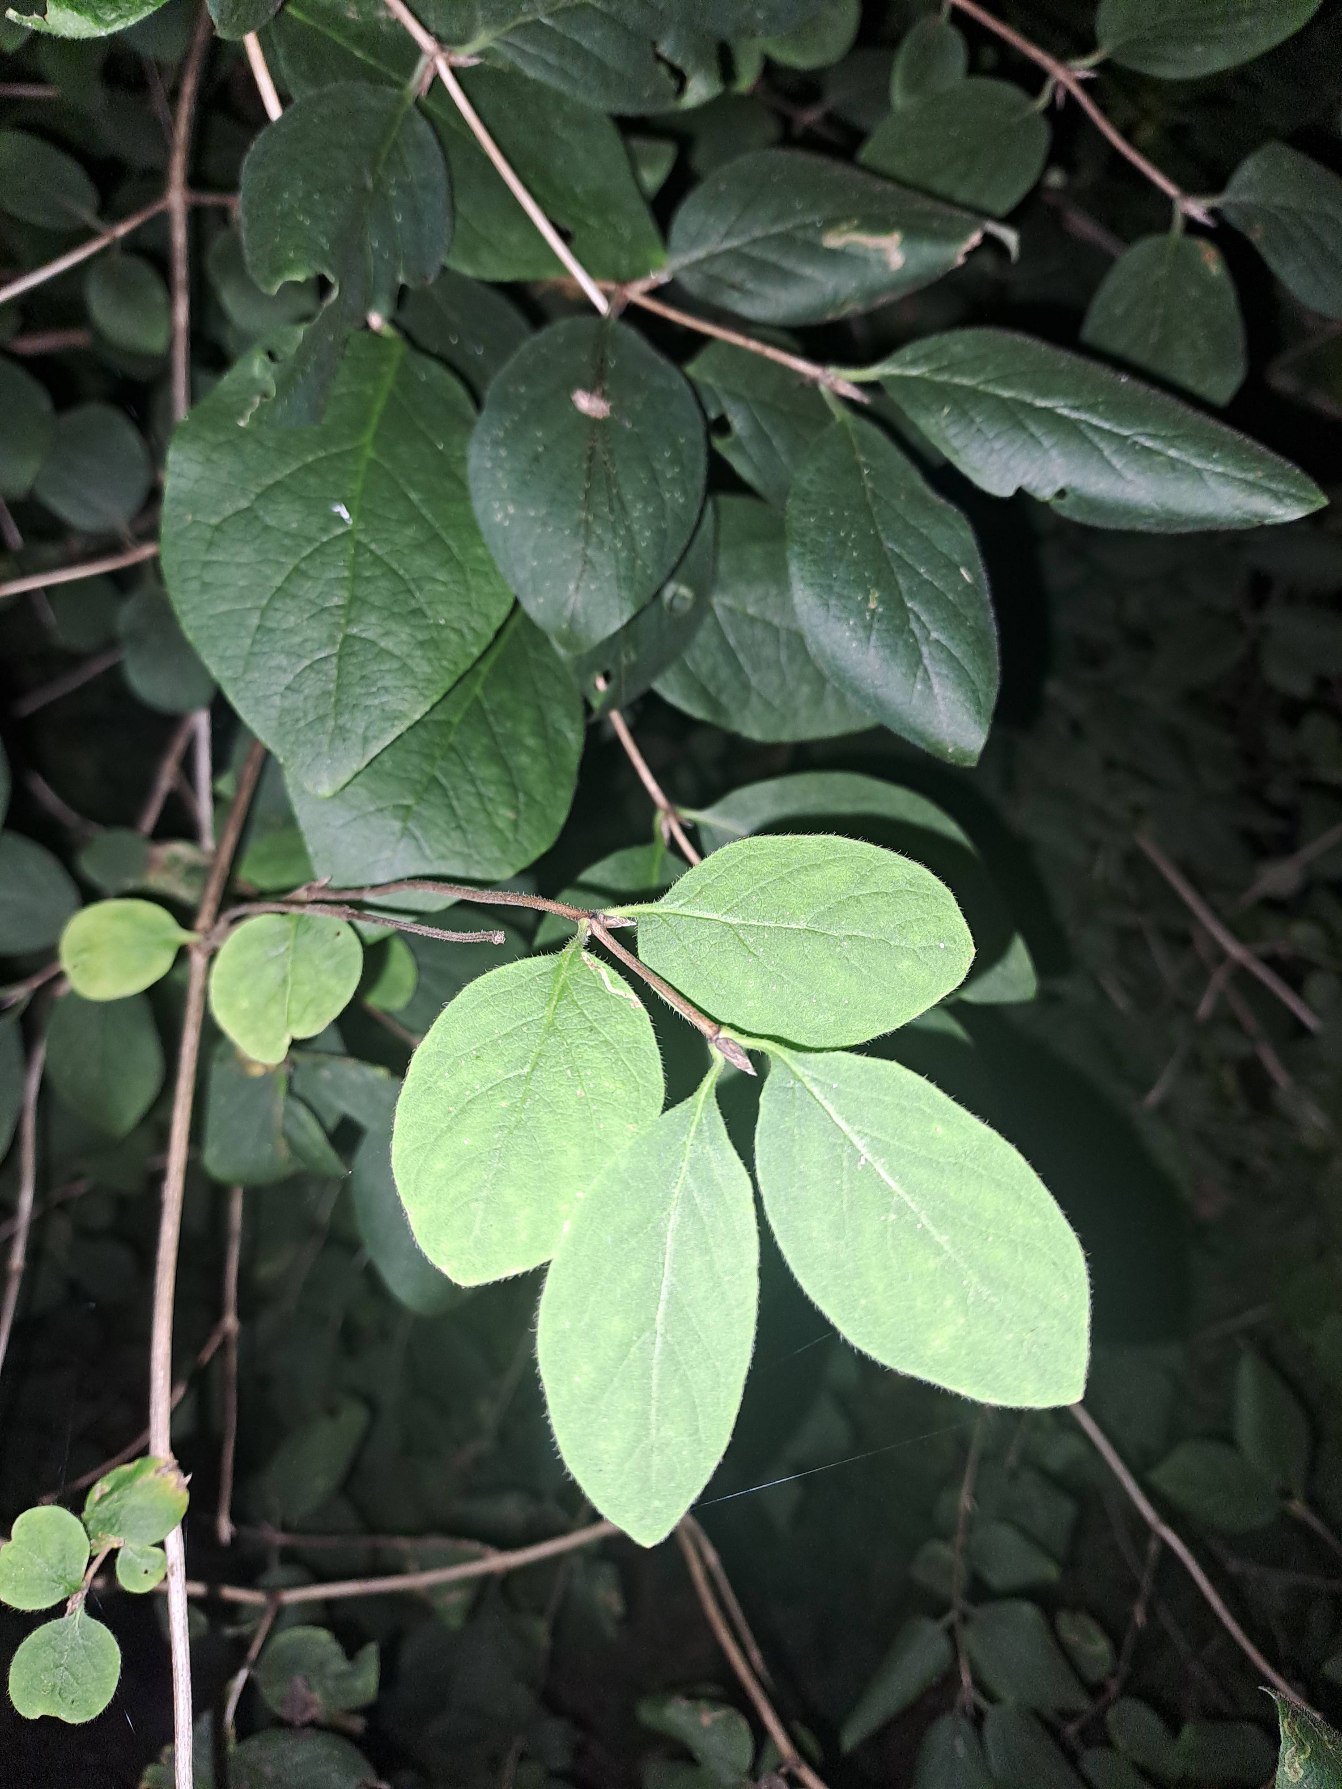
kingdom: Plantae
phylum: Tracheophyta
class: Magnoliopsida
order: Dipsacales
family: Caprifoliaceae
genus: Lonicera
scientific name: Lonicera xylosteum
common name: Dunet gedeblad
